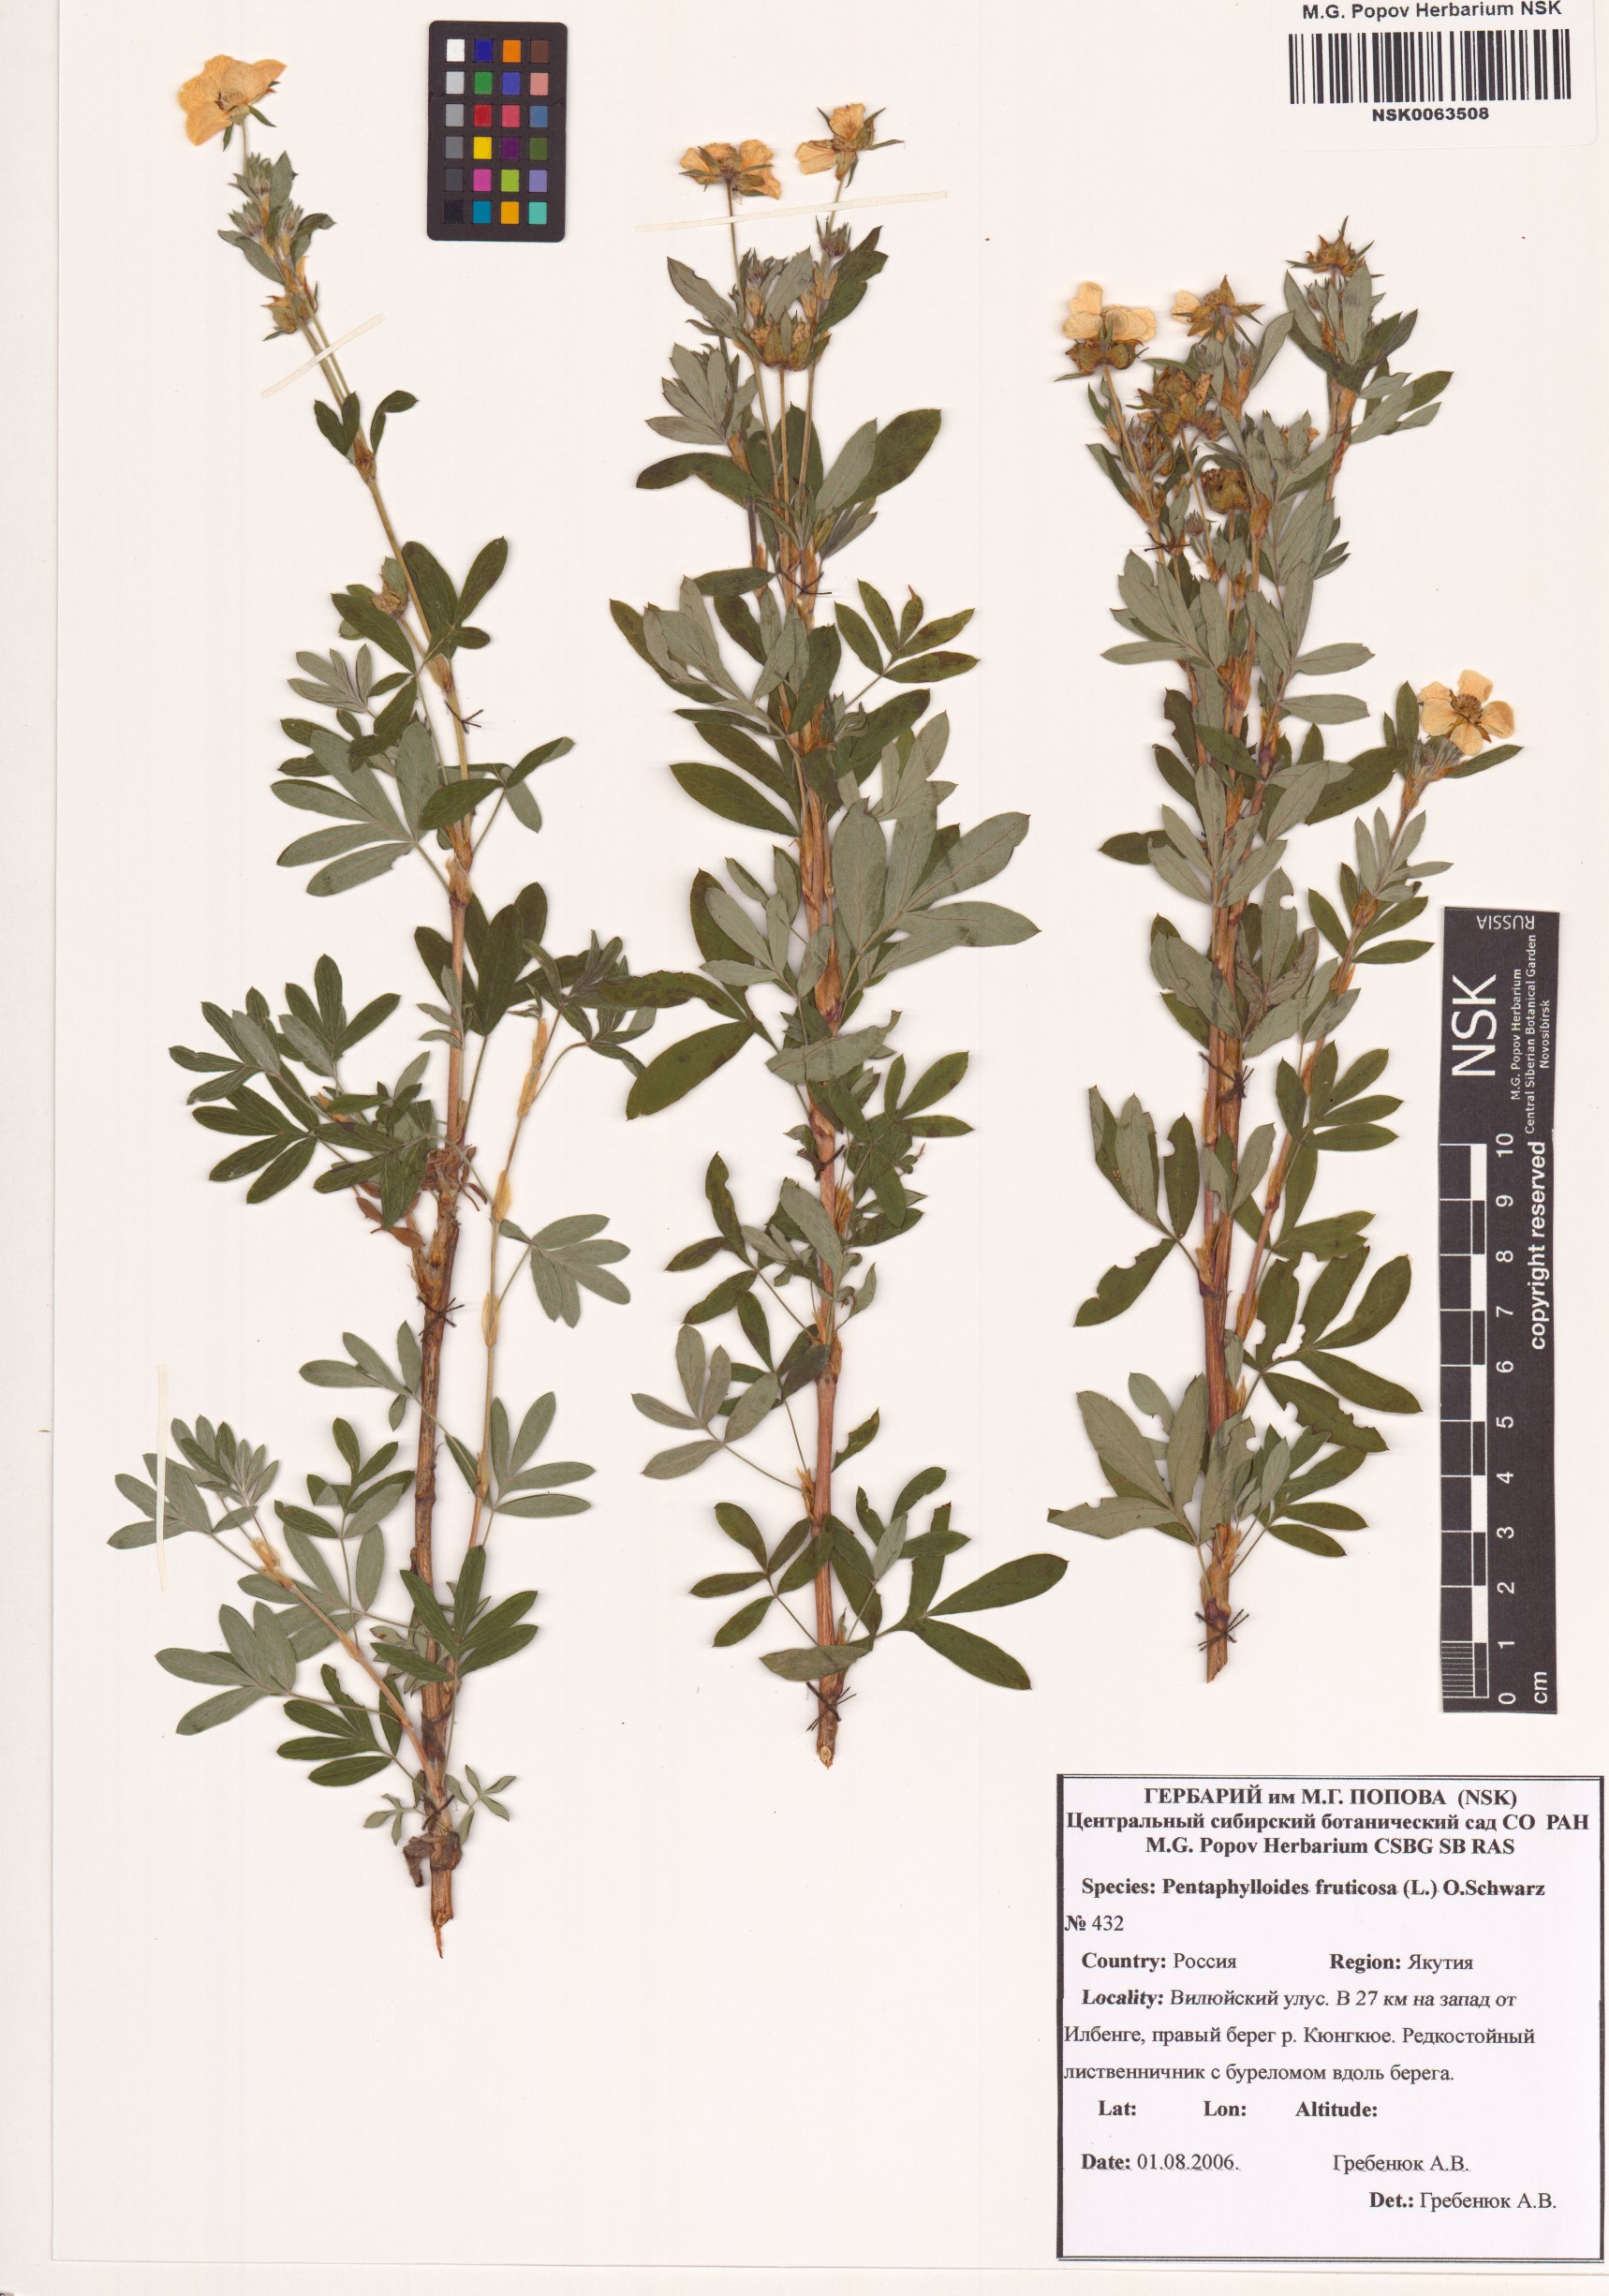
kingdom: Plantae
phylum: Tracheophyta
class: Magnoliopsida
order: Rosales
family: Rosaceae
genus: Dasiphora
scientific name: Dasiphora fruticosa
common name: Shrubby cinquefoil
